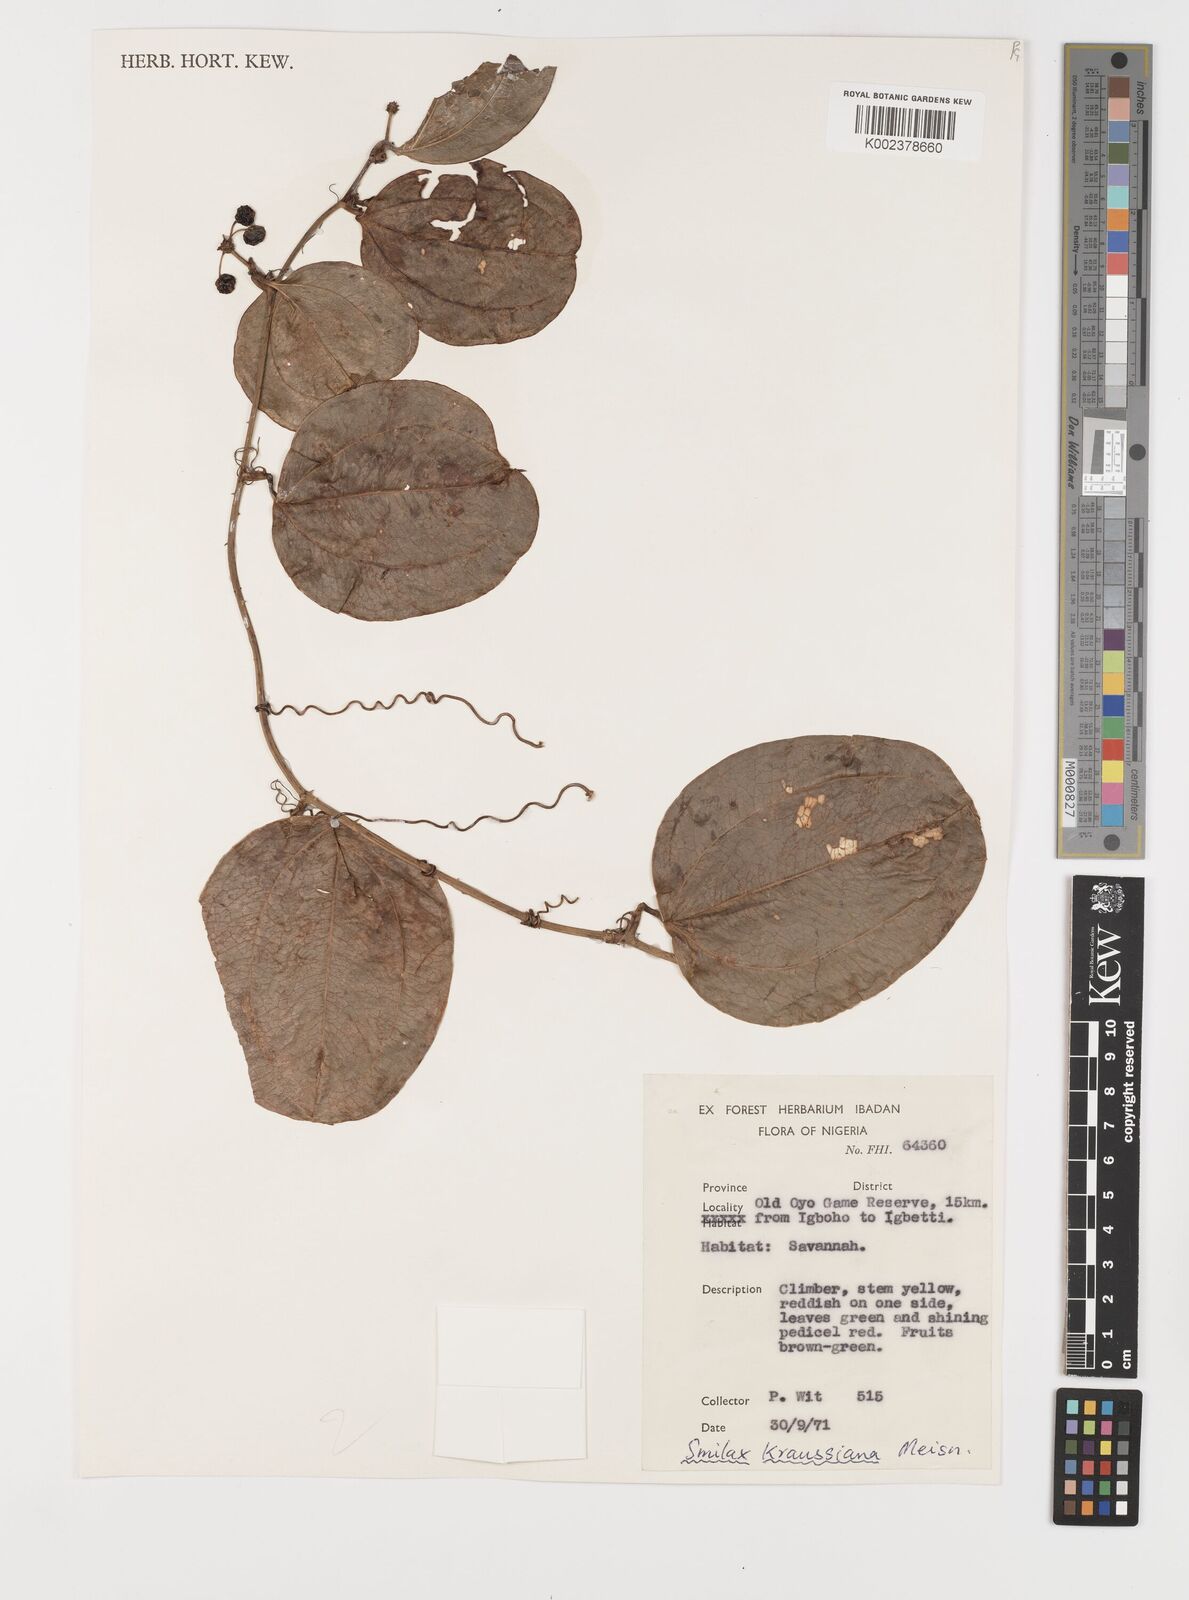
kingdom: Plantae
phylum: Tracheophyta
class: Liliopsida
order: Liliales
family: Smilacaceae
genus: Smilax
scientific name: Smilax anceps
